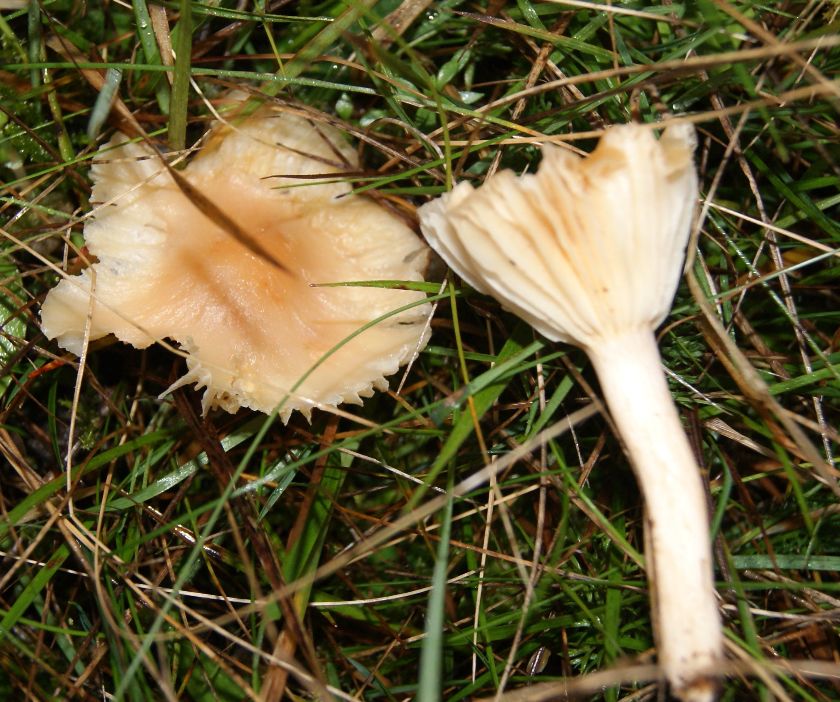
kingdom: Fungi
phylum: Basidiomycota
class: Agaricomycetes
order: Agaricales
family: Hygrophoraceae
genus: Cuphophyllus
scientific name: Cuphophyllus pratensis
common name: eng-vokshat
